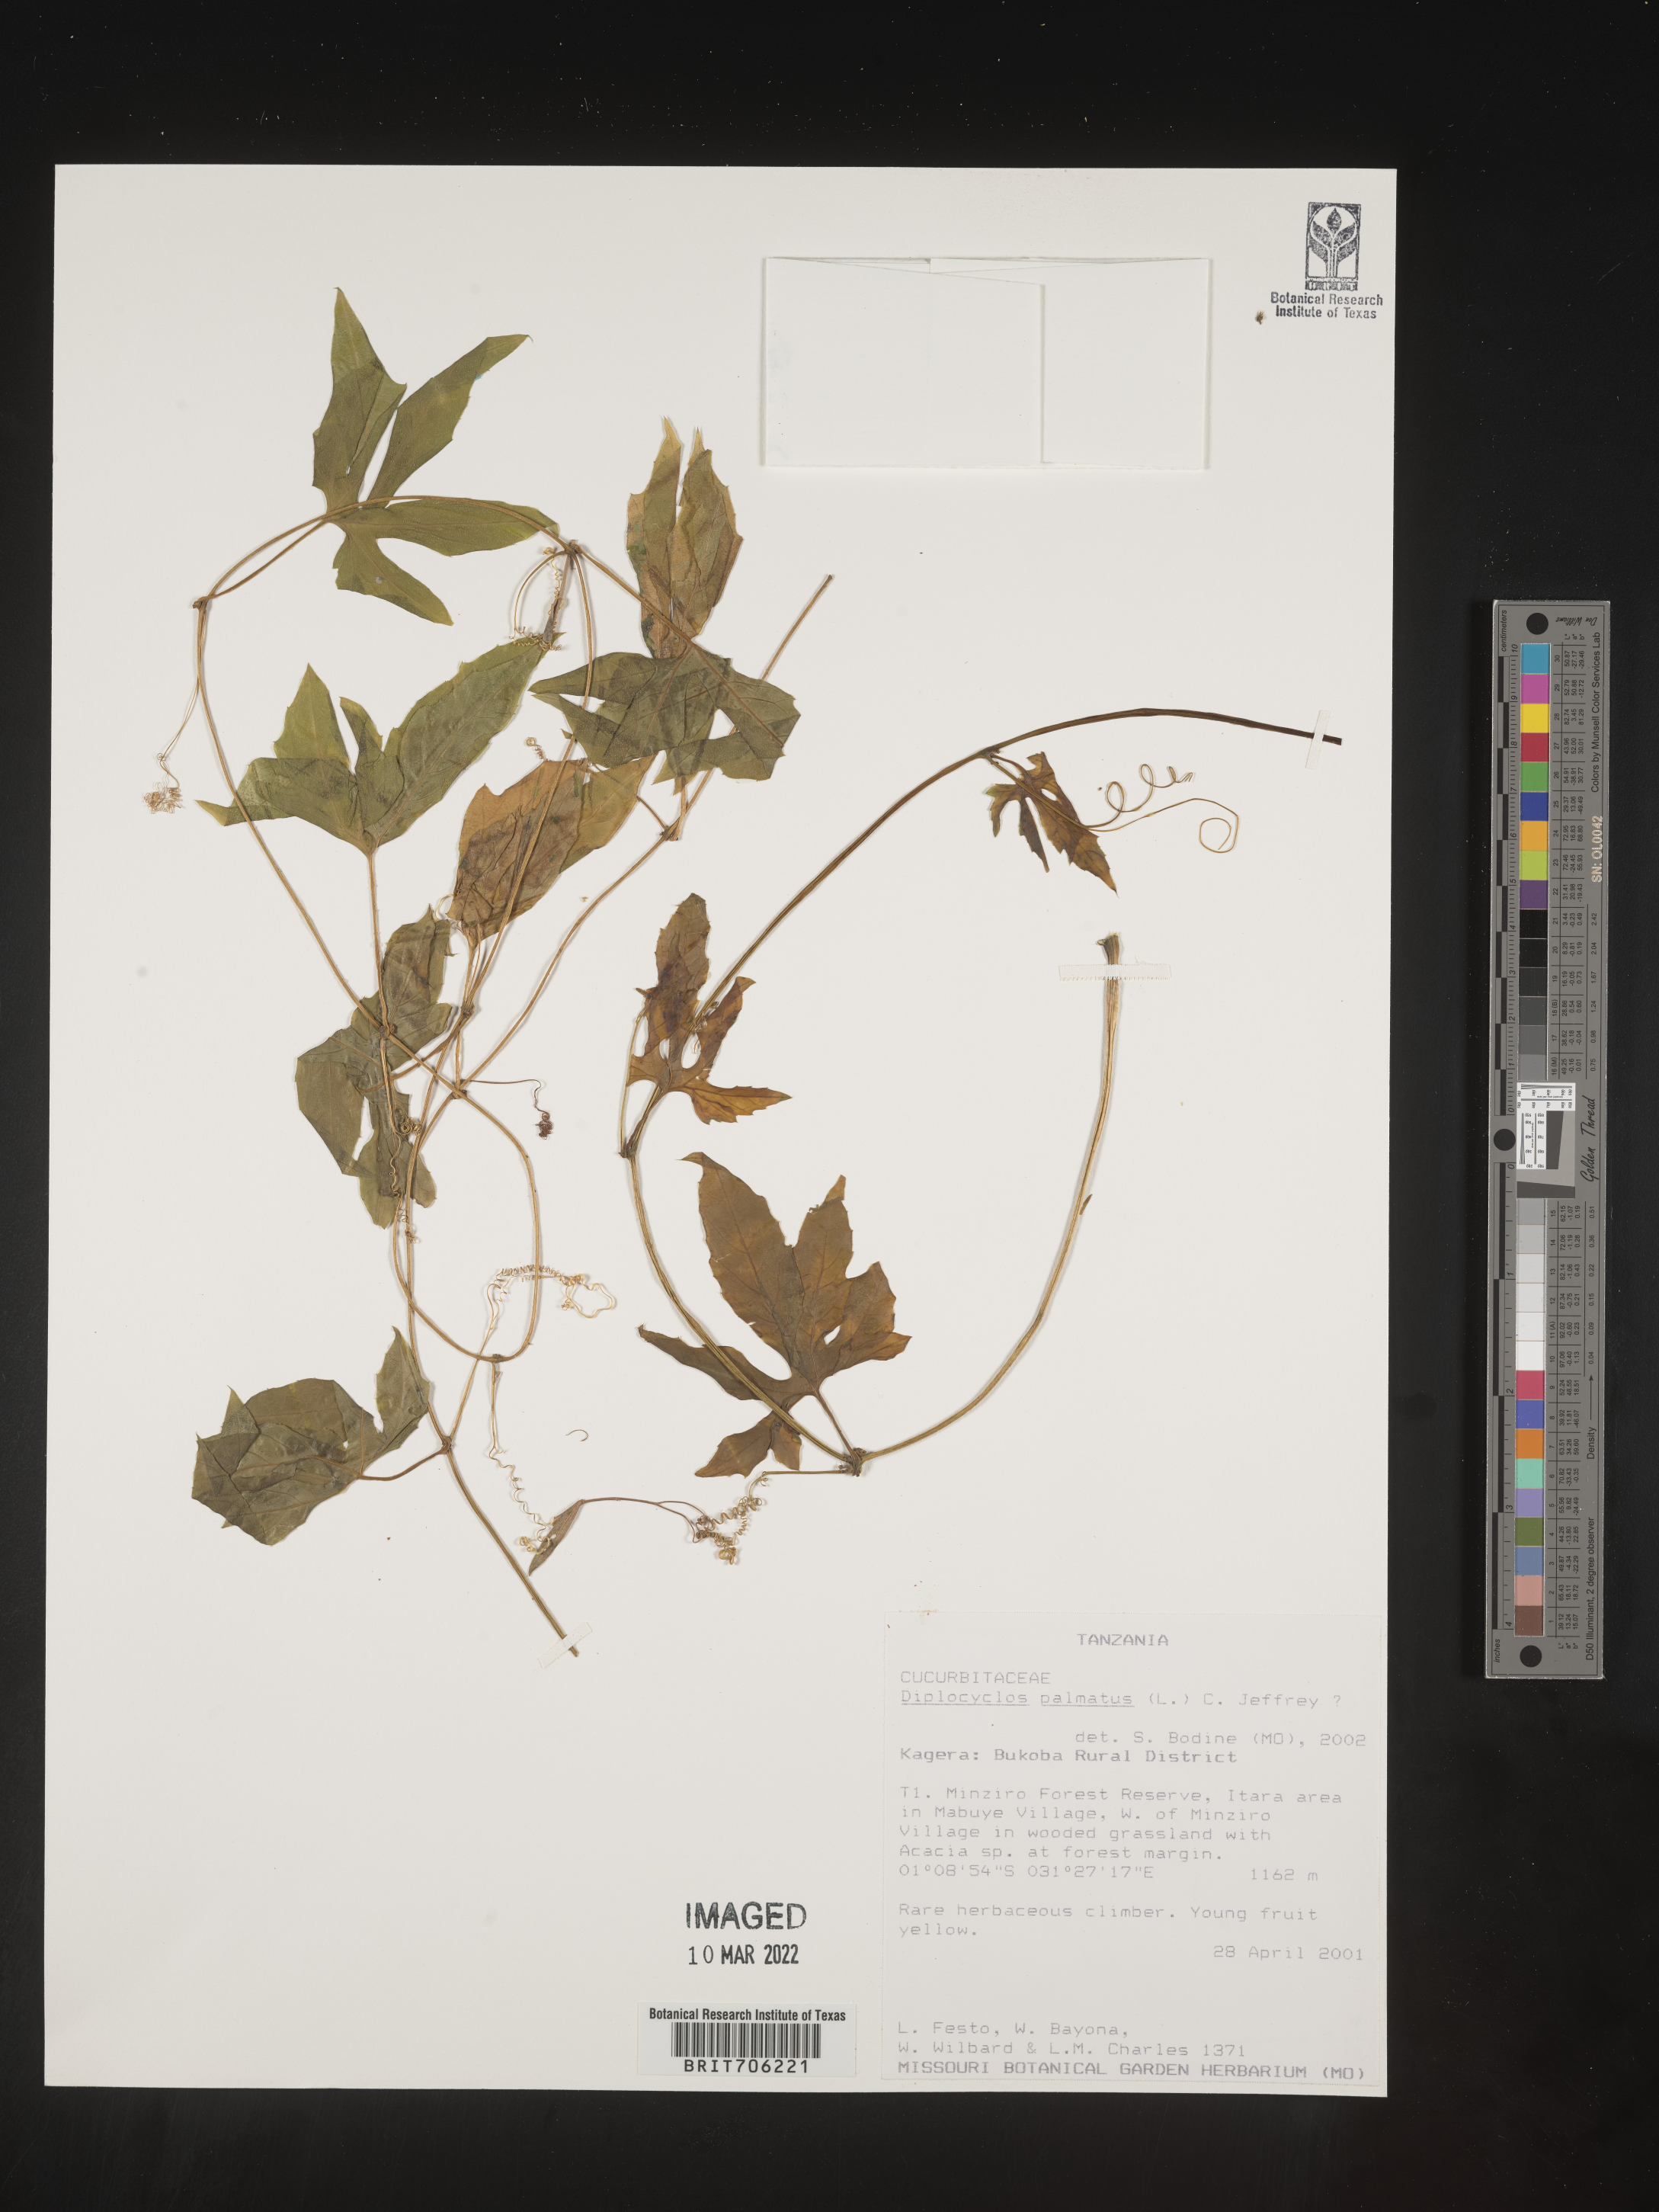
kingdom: Plantae
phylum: Tracheophyta
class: Magnoliopsida
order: Cucurbitales
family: Cucurbitaceae
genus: Diplocyclos
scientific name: Diplocyclos
